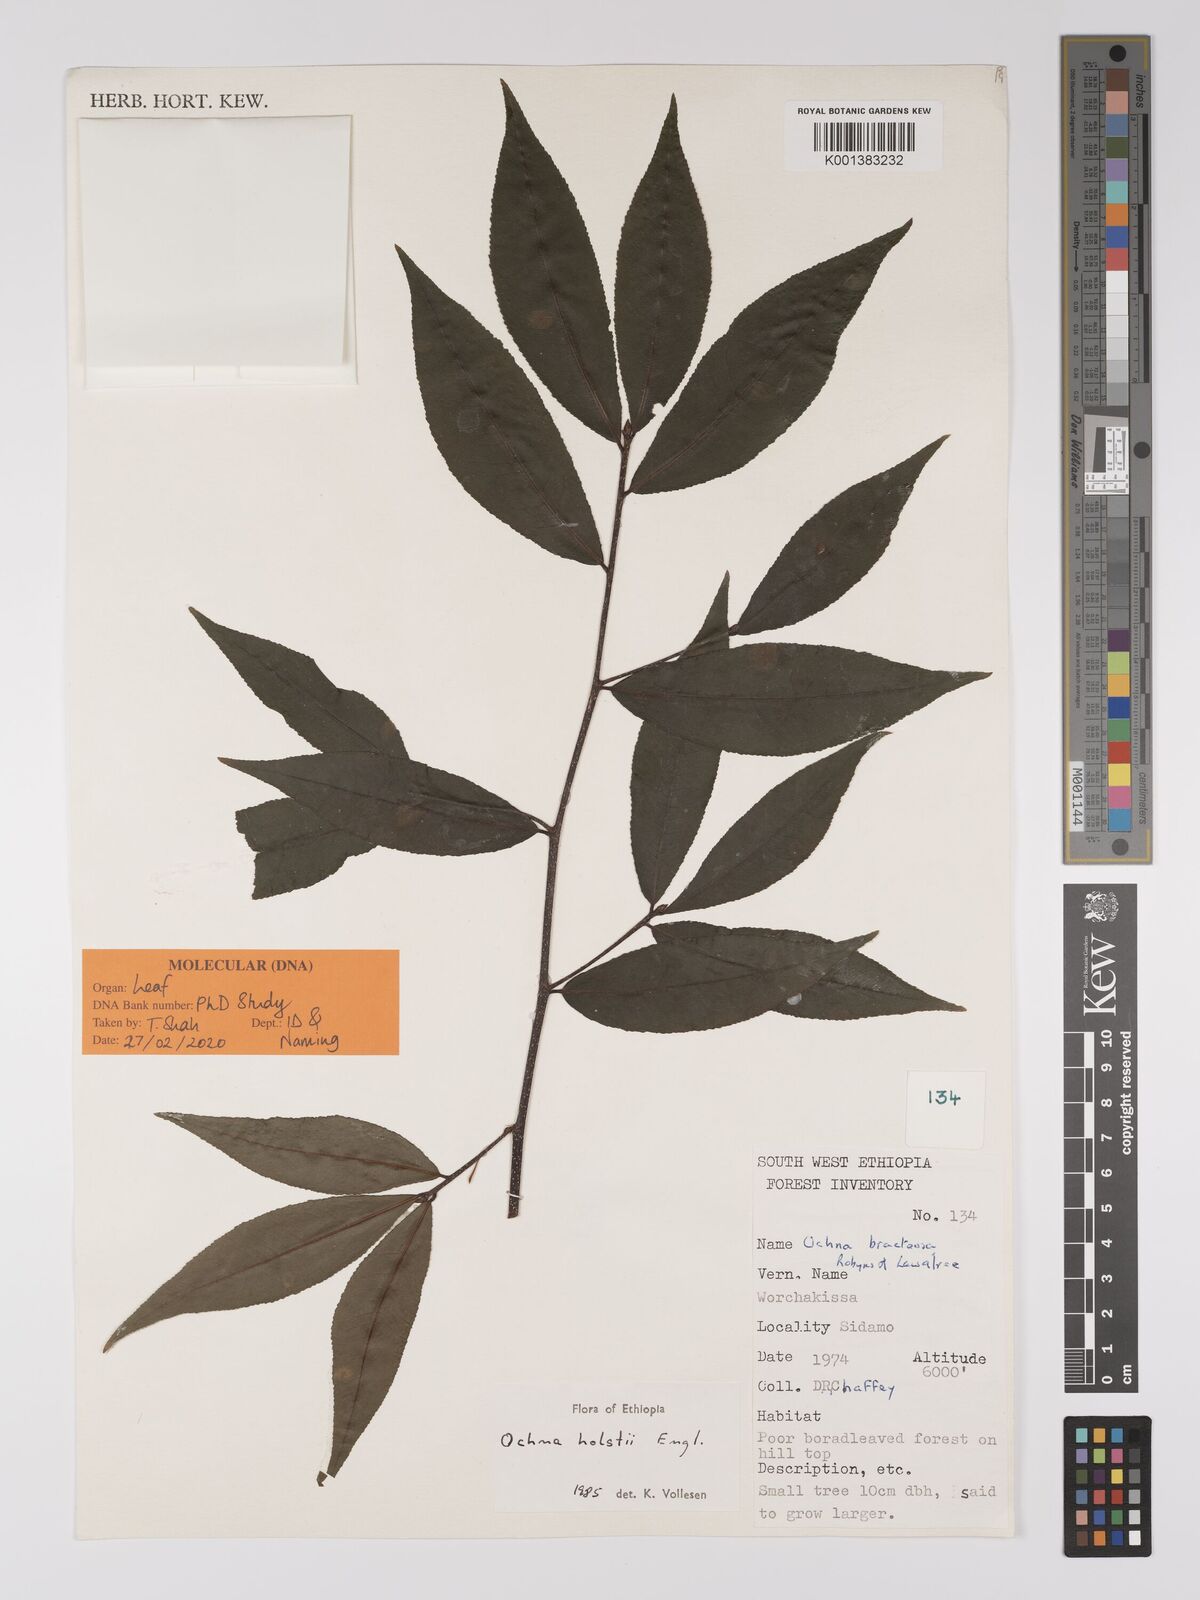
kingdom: Plantae
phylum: Tracheophyta
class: Magnoliopsida
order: Malpighiales
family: Ochnaceae
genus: Ochna
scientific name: Ochna holstii
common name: Red ironwood
